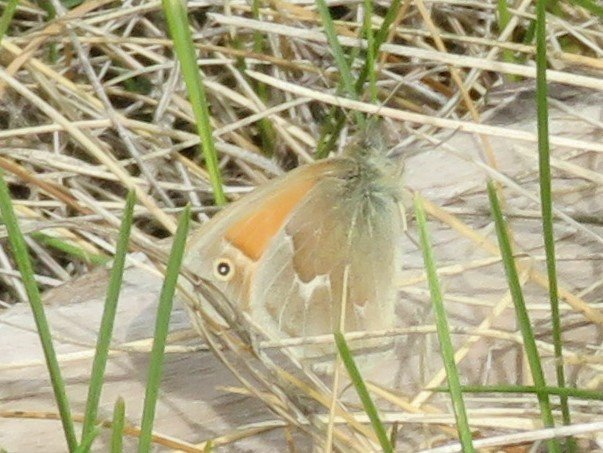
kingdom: Animalia
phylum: Arthropoda
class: Insecta
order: Lepidoptera
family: Nymphalidae
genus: Coenonympha
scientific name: Coenonympha tullia
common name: Large Heath
